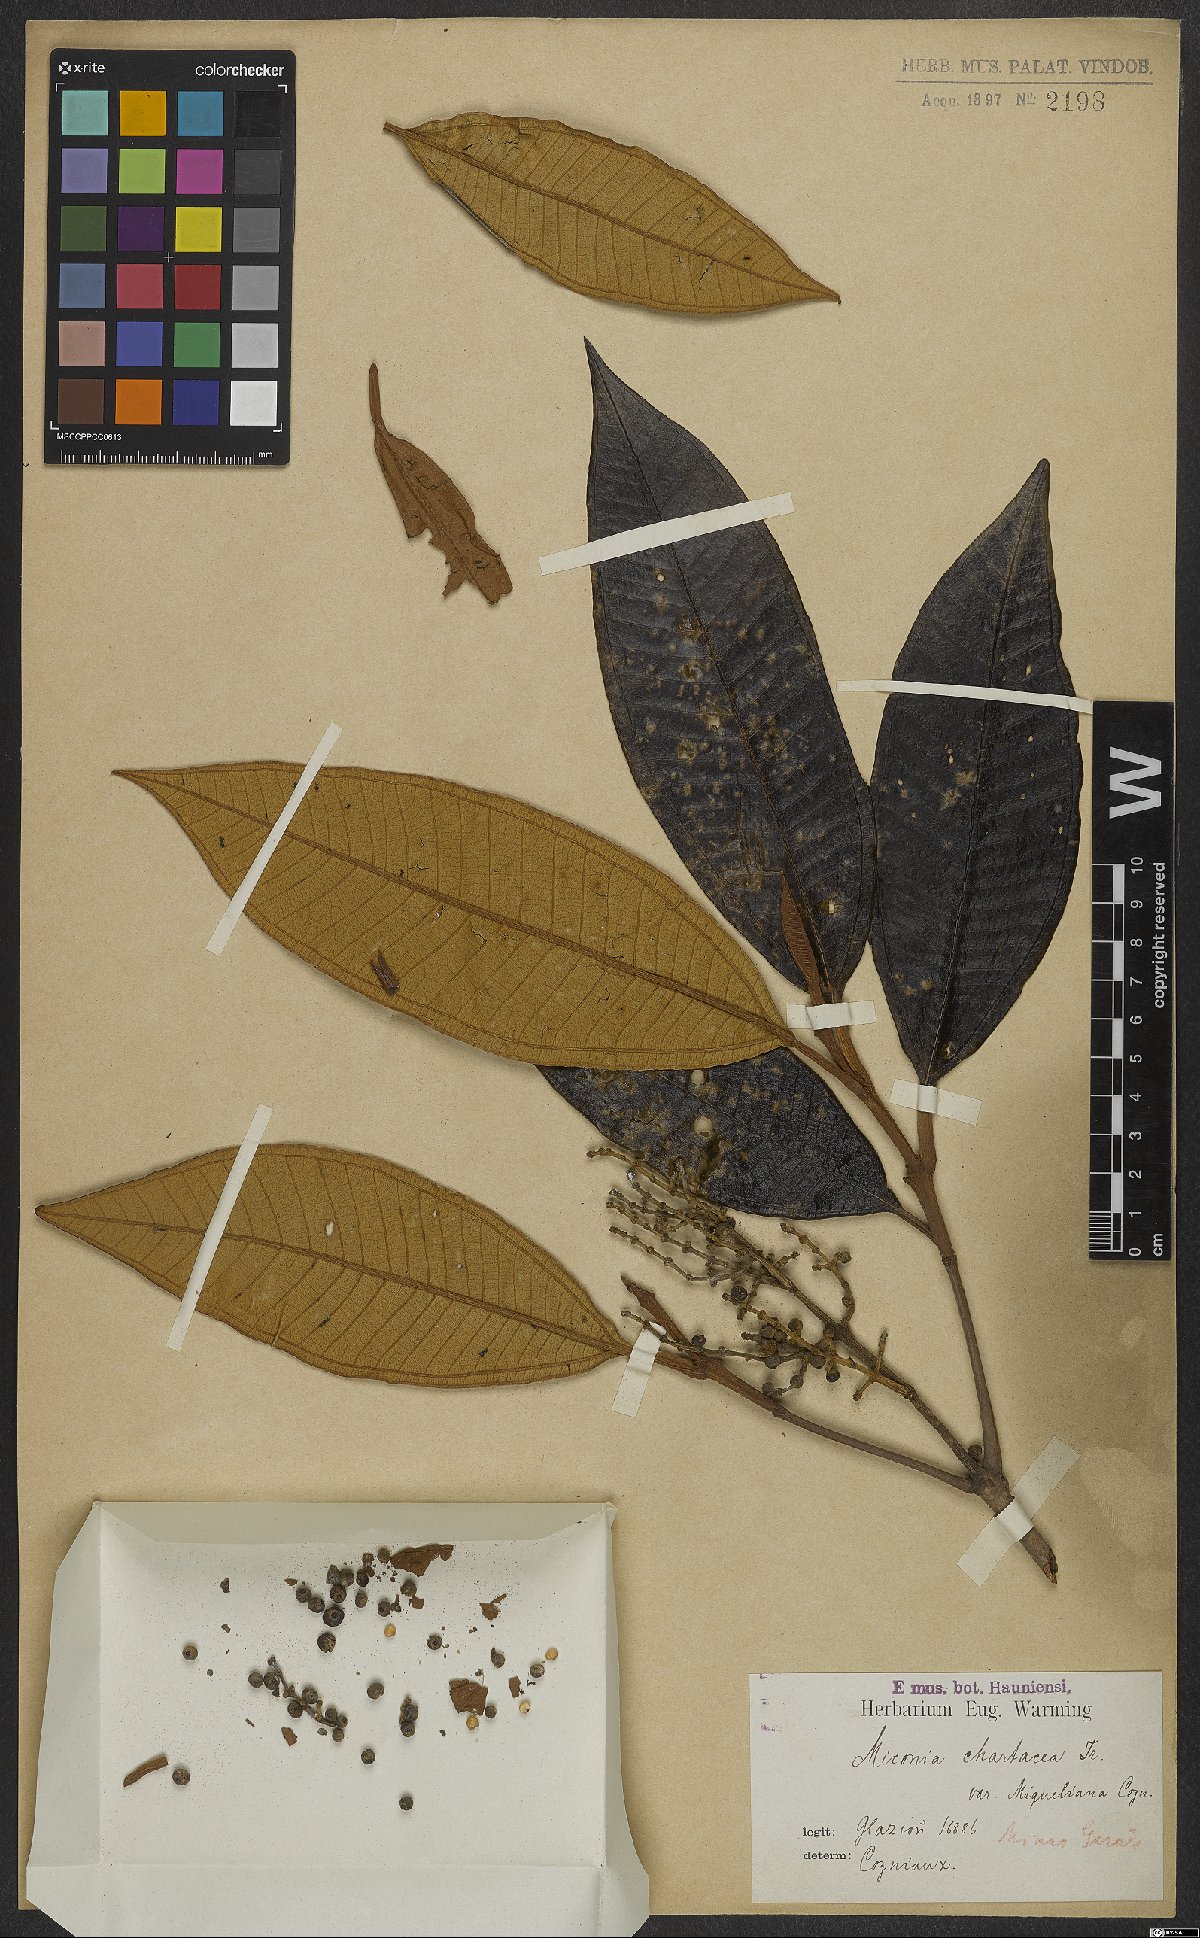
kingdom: Plantae
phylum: Tracheophyta
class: Magnoliopsida
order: Myrtales
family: Melastomataceae
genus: Miconia
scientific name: Miconia chartacea
